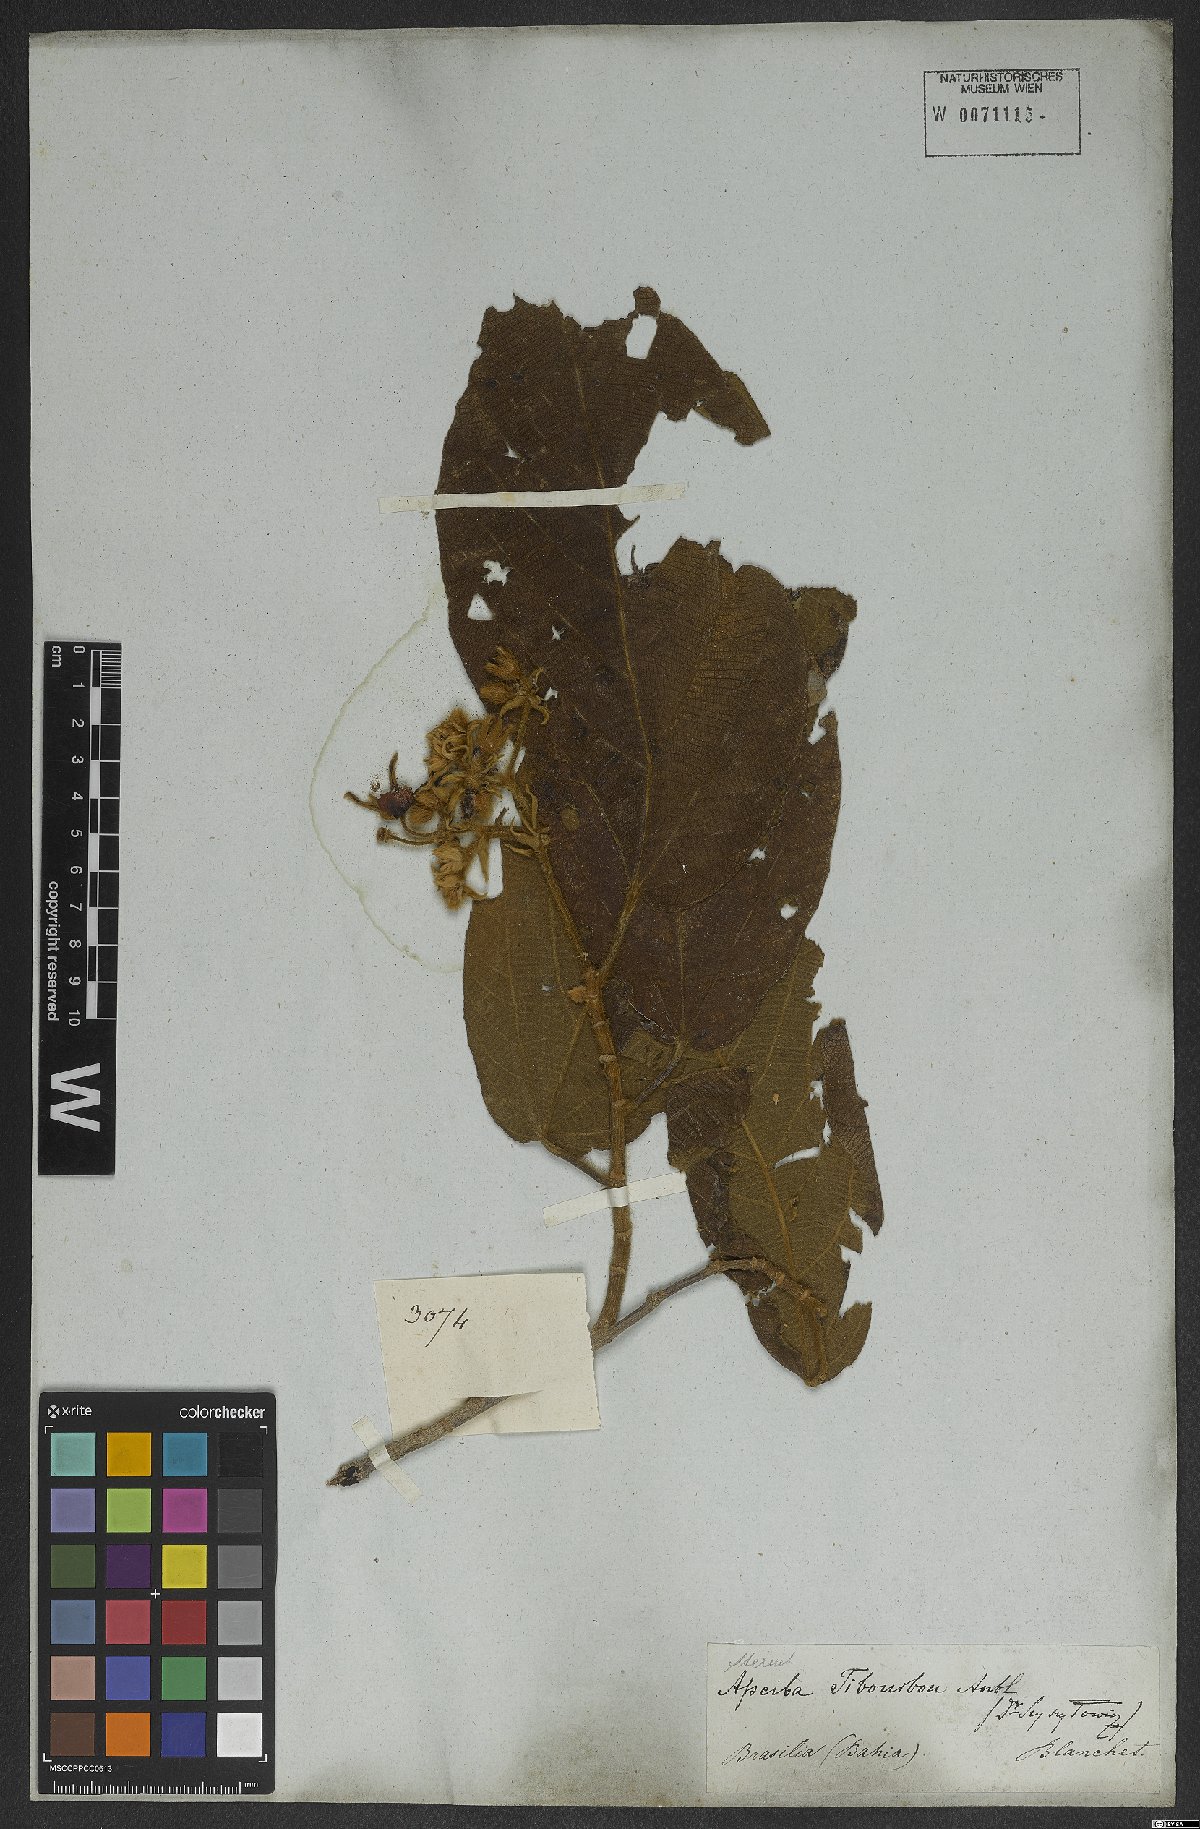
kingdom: Plantae
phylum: Tracheophyta
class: Magnoliopsida
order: Malvales
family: Malvaceae
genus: Apeiba
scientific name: Apeiba tibourbou
